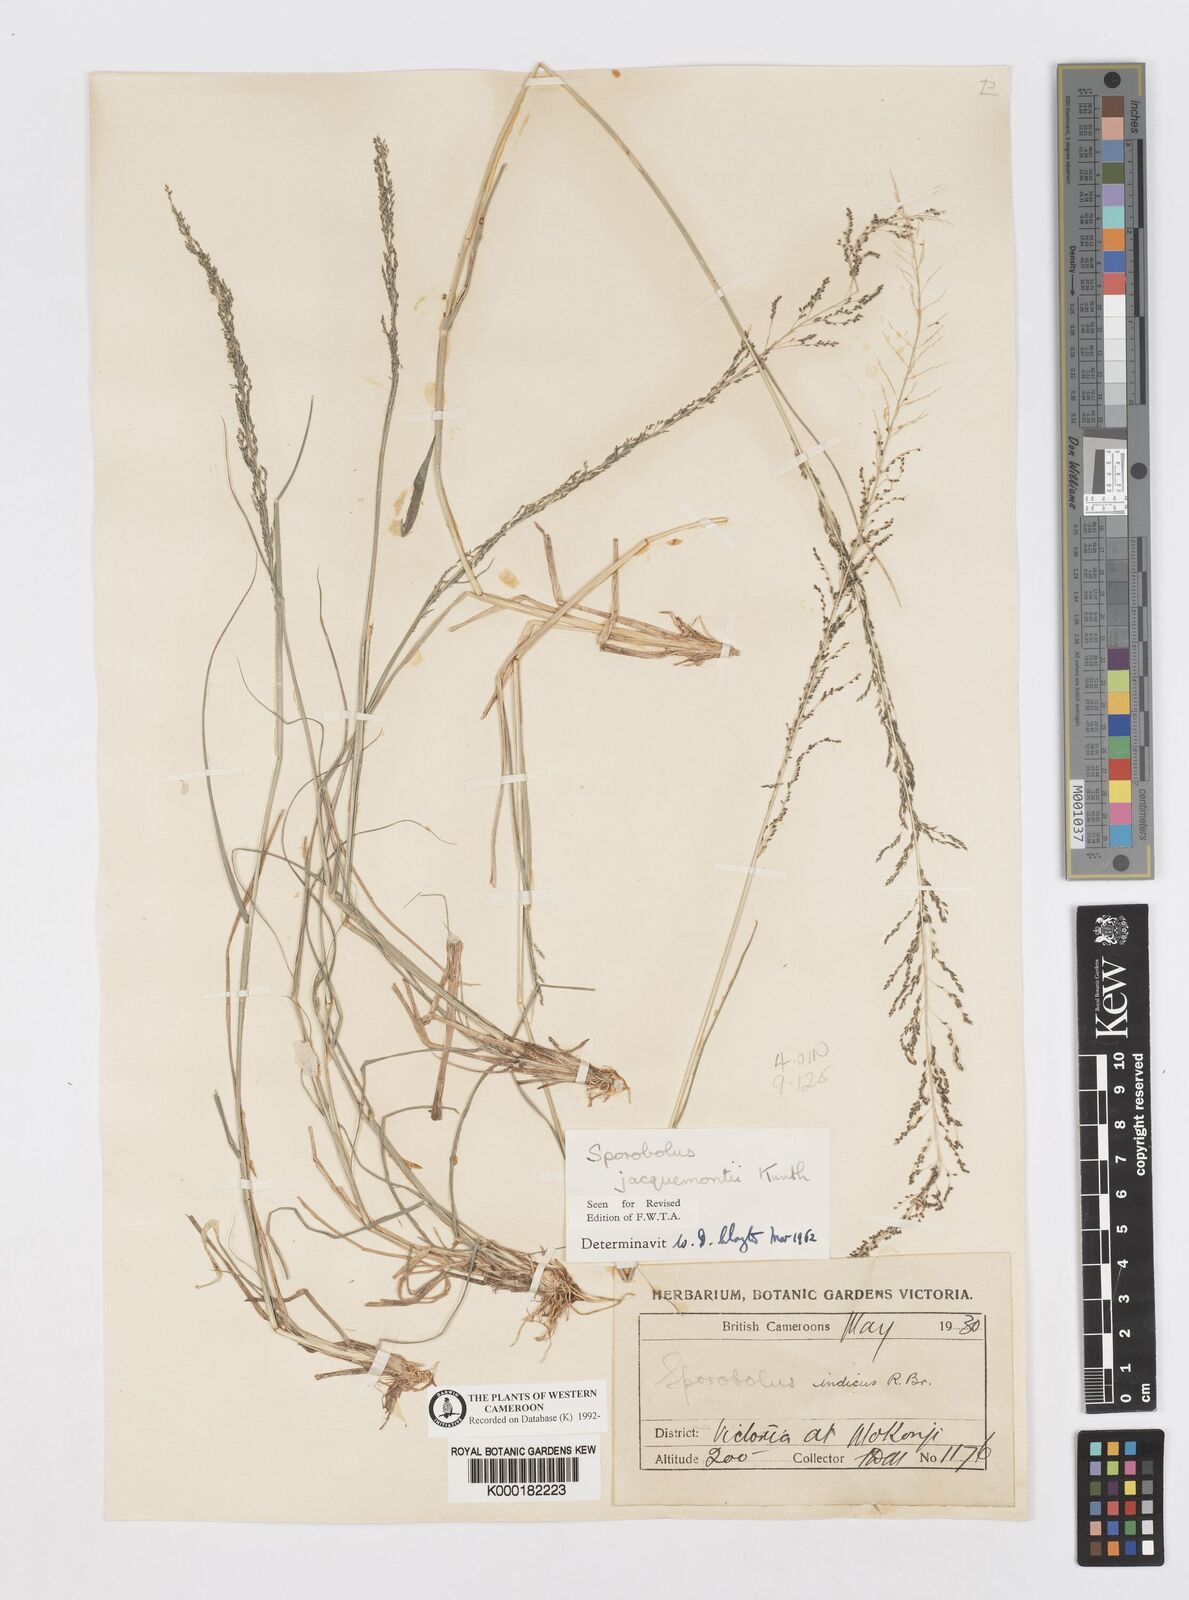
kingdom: Plantae
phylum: Tracheophyta
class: Liliopsida
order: Poales
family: Poaceae
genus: Sporobolus
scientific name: Sporobolus pyramidalis
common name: West indian dropseed
